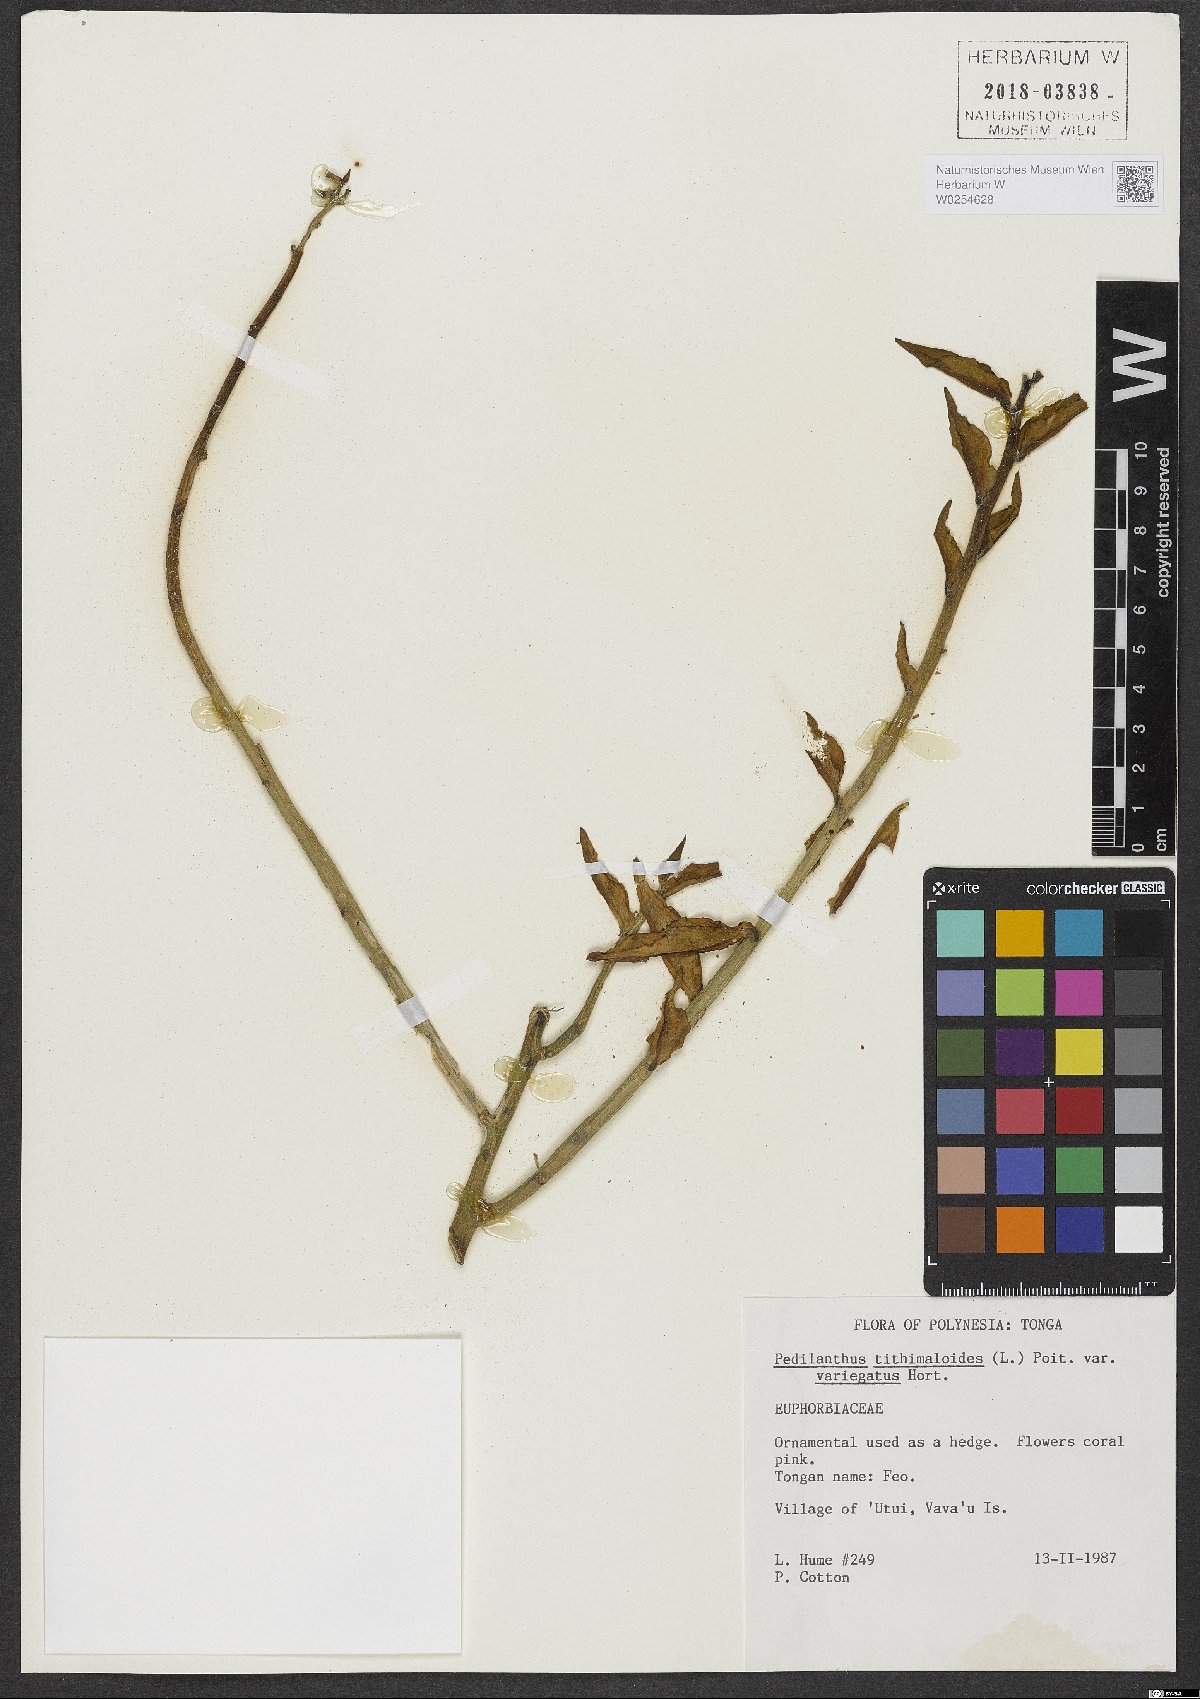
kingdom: Plantae
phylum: Tracheophyta
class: Magnoliopsida
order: Malpighiales
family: Euphorbiaceae
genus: Euphorbia
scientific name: Euphorbia tithymaloides
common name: Slipperplant
